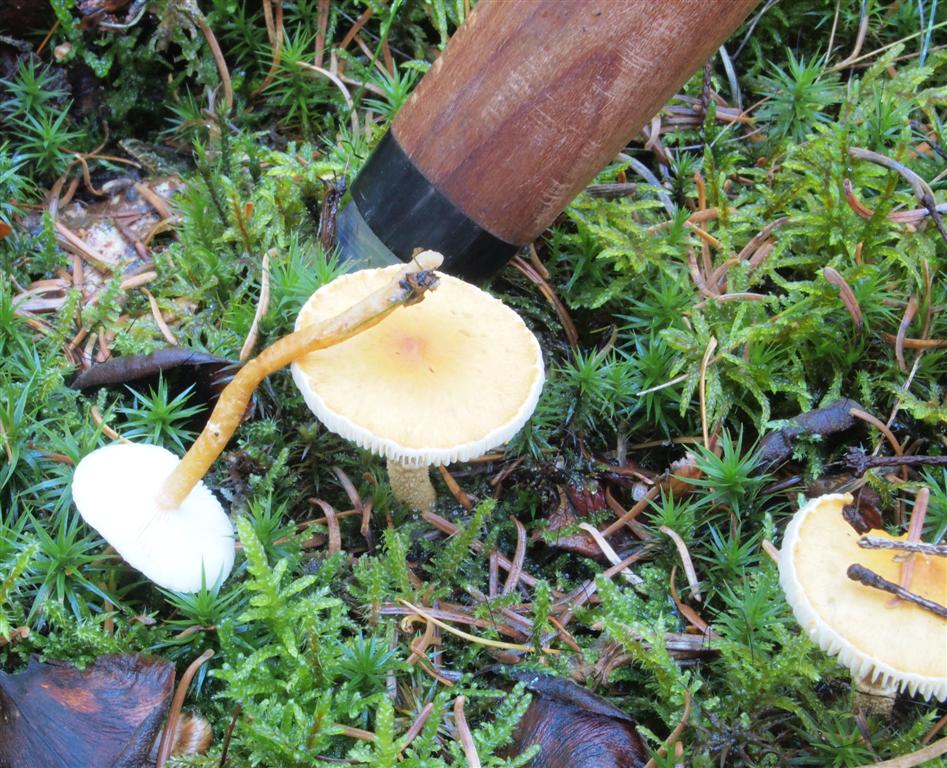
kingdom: Fungi
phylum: Basidiomycota
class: Agaricomycetes
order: Agaricales
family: Tricholomataceae
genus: Cystoderma
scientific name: Cystoderma amianthinum
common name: okkergul grynhat
